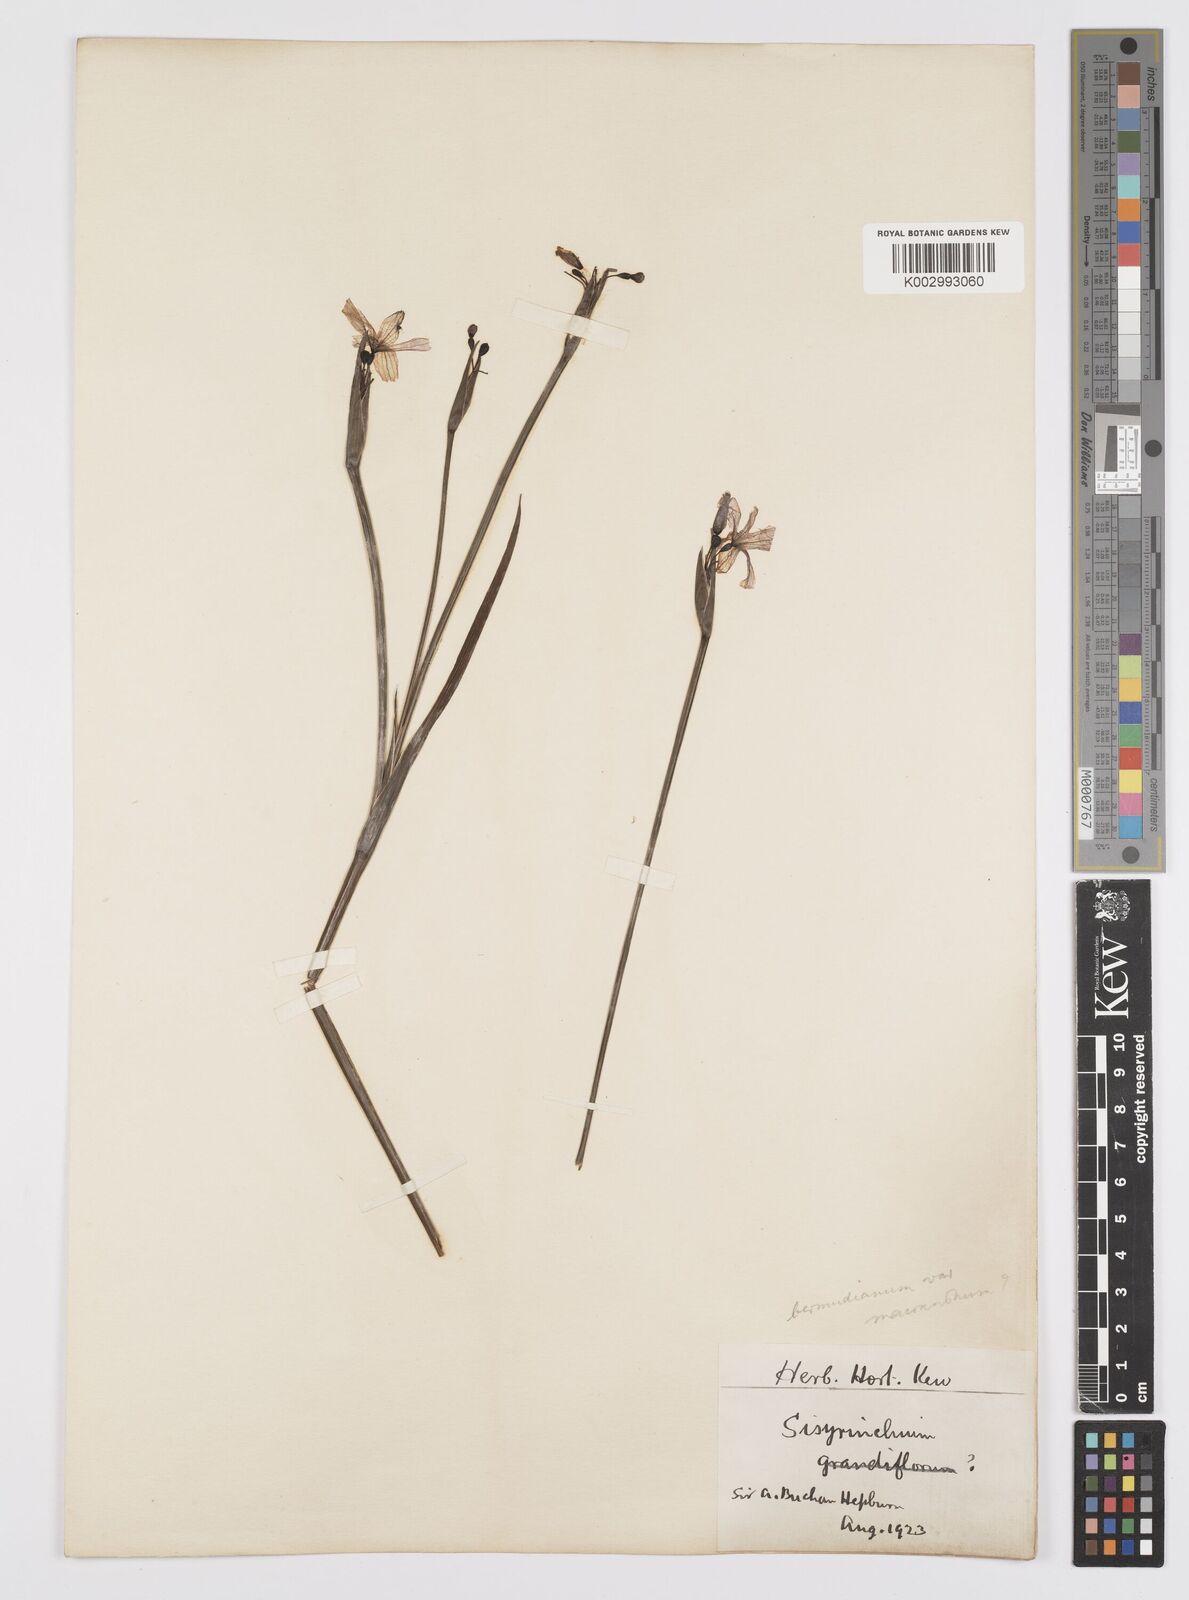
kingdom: Plantae
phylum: Tracheophyta
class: Liliopsida
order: Asparagales
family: Iridaceae
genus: Sisyrinchium
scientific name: Sisyrinchium bermudiana
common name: Blue-eyed-grass
